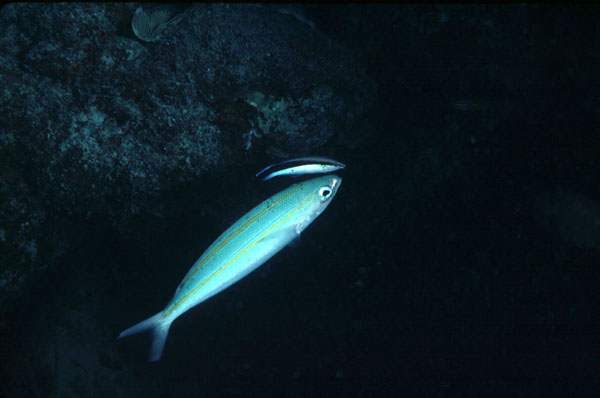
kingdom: Animalia
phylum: Chordata
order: Perciformes
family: Caesionidae
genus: Pterocaesio
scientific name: Pterocaesio digramma
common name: Double-lined fusilier
